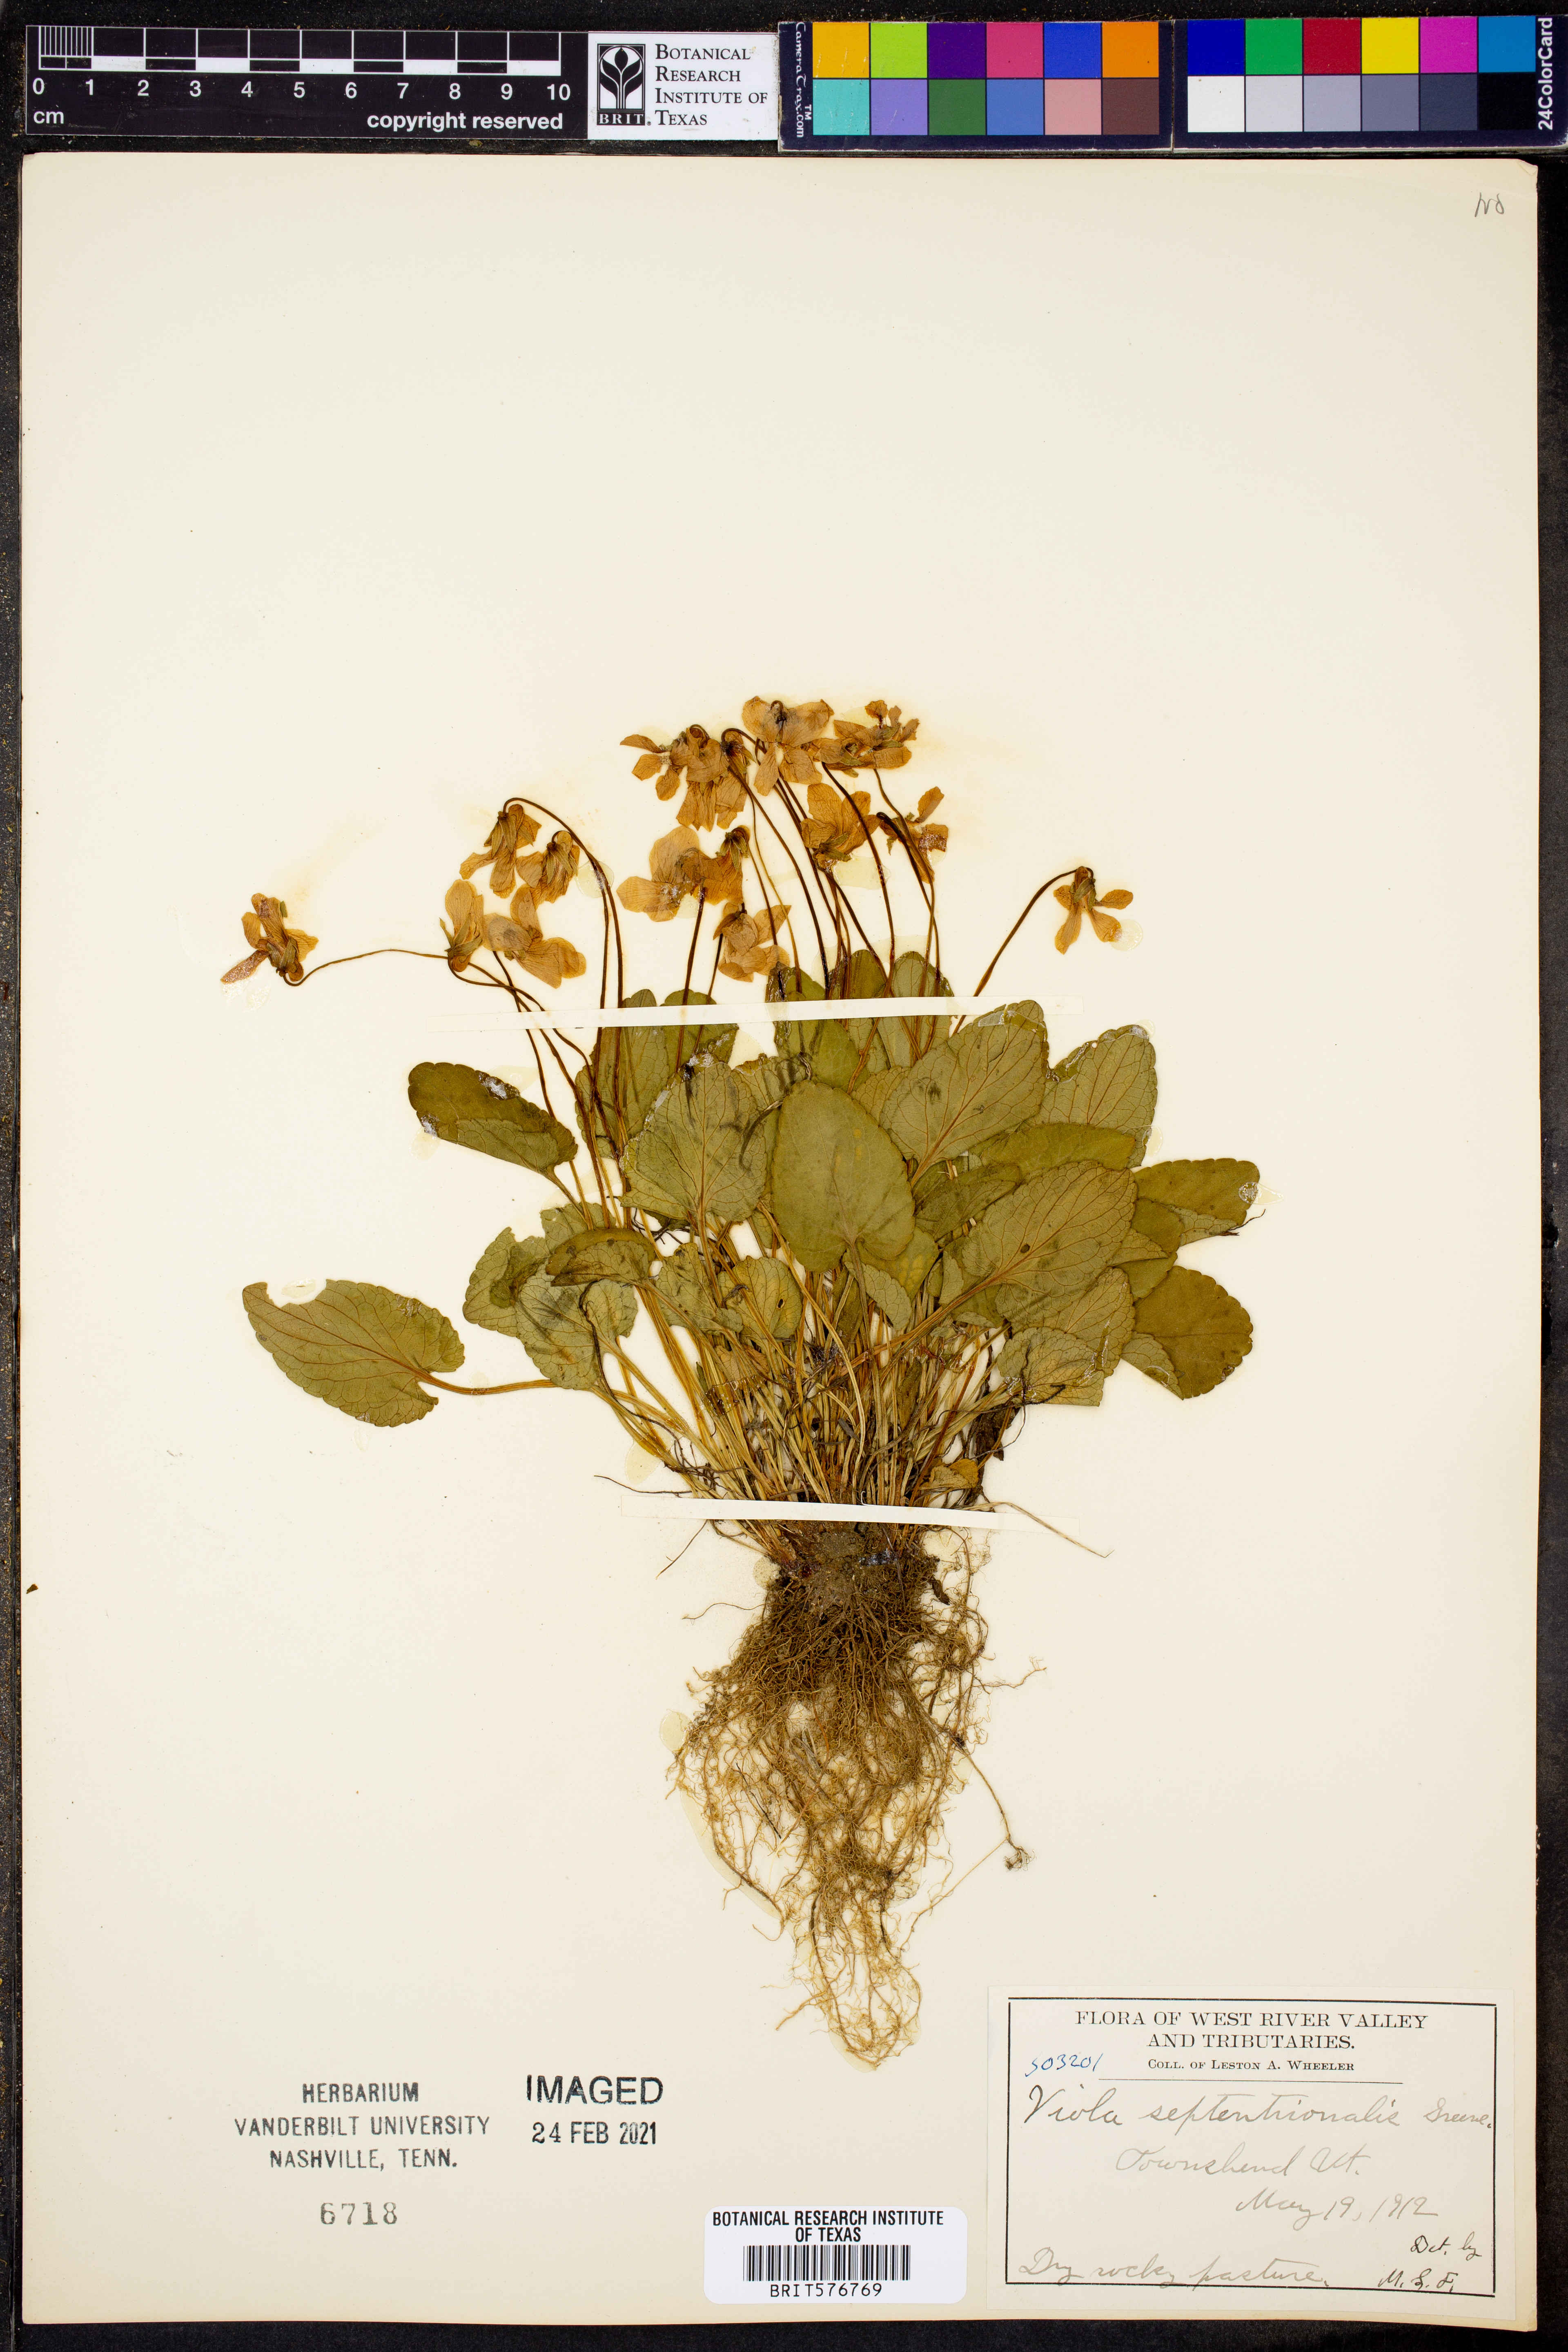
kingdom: Plantae
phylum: Tracheophyta
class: Magnoliopsida
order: Malpighiales
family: Violaceae
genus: Viola
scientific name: Viola septentrionalis
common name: Northern woodland violet
